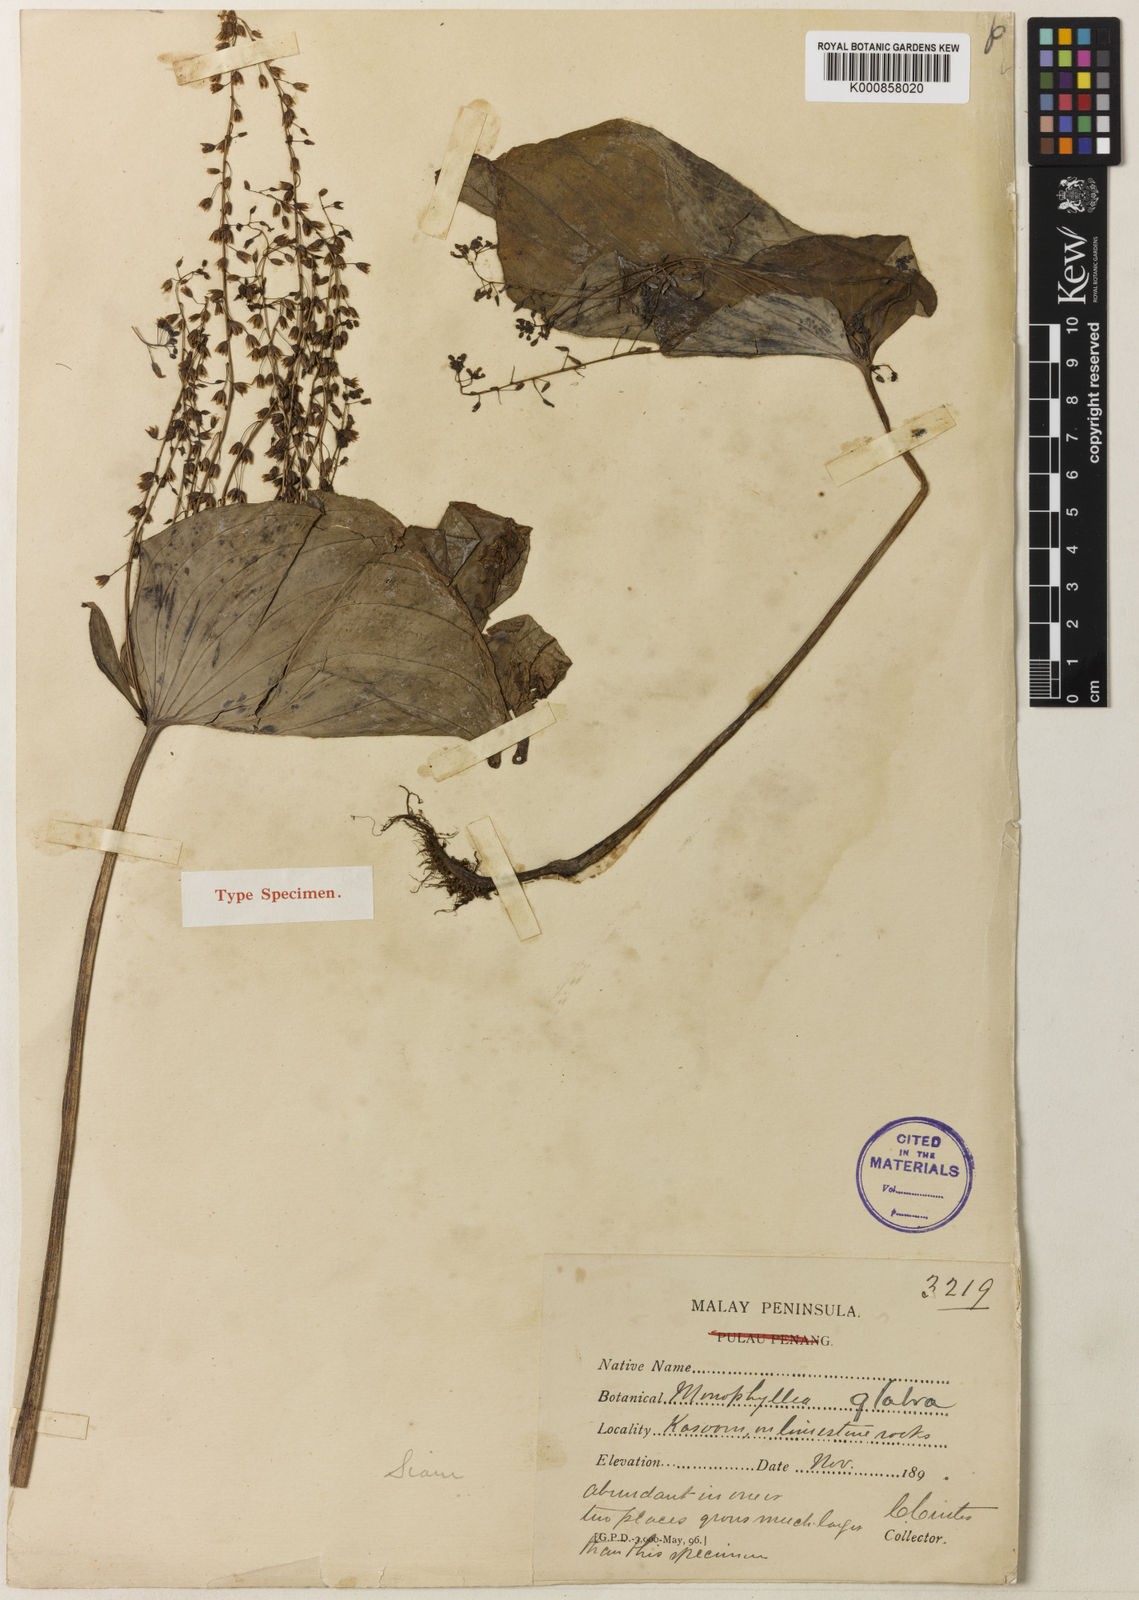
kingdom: Plantae
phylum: Tracheophyta
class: Magnoliopsida
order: Lamiales
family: Gesneriaceae
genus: Monophyllaea
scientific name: Monophyllaea glabra
